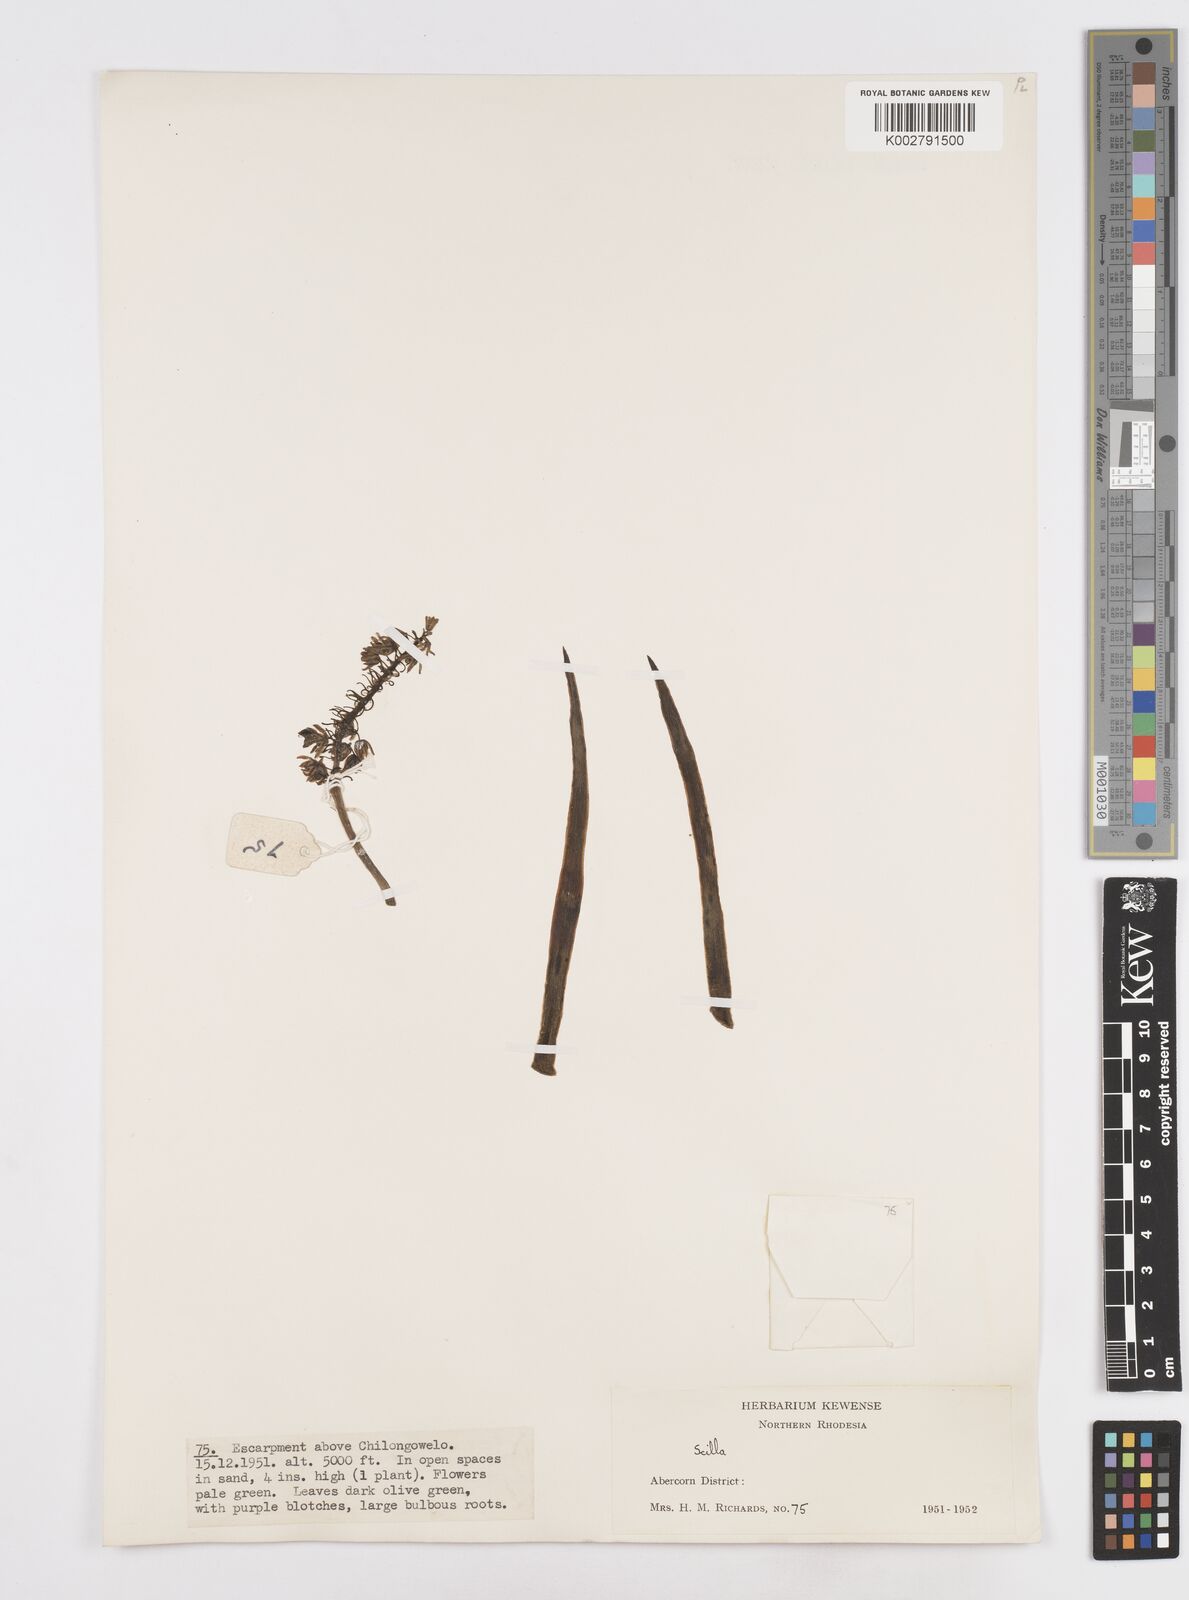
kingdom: Plantae
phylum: Tracheophyta
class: Liliopsida
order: Asparagales
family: Asparagaceae
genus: Scilla
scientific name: Scilla
